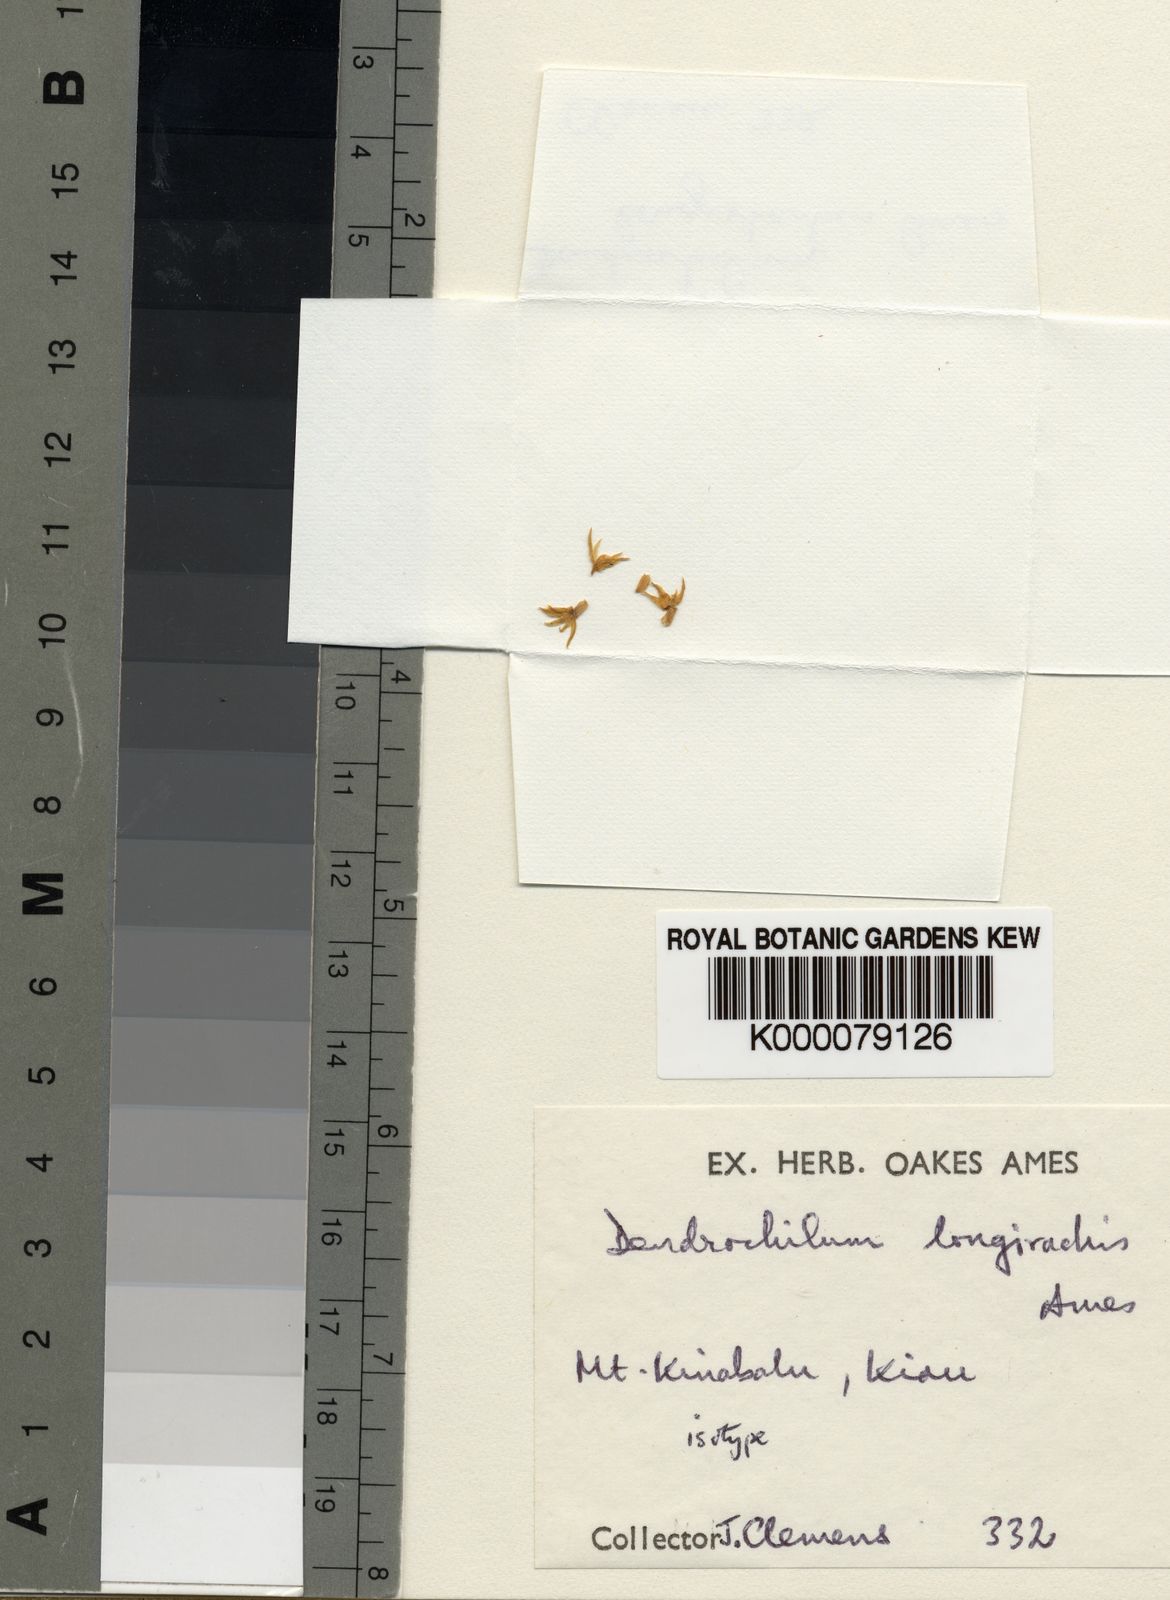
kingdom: Plantae
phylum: Tracheophyta
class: Liliopsida
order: Asparagales
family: Orchidaceae
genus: Coelogyne
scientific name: Coelogyne strongiae
